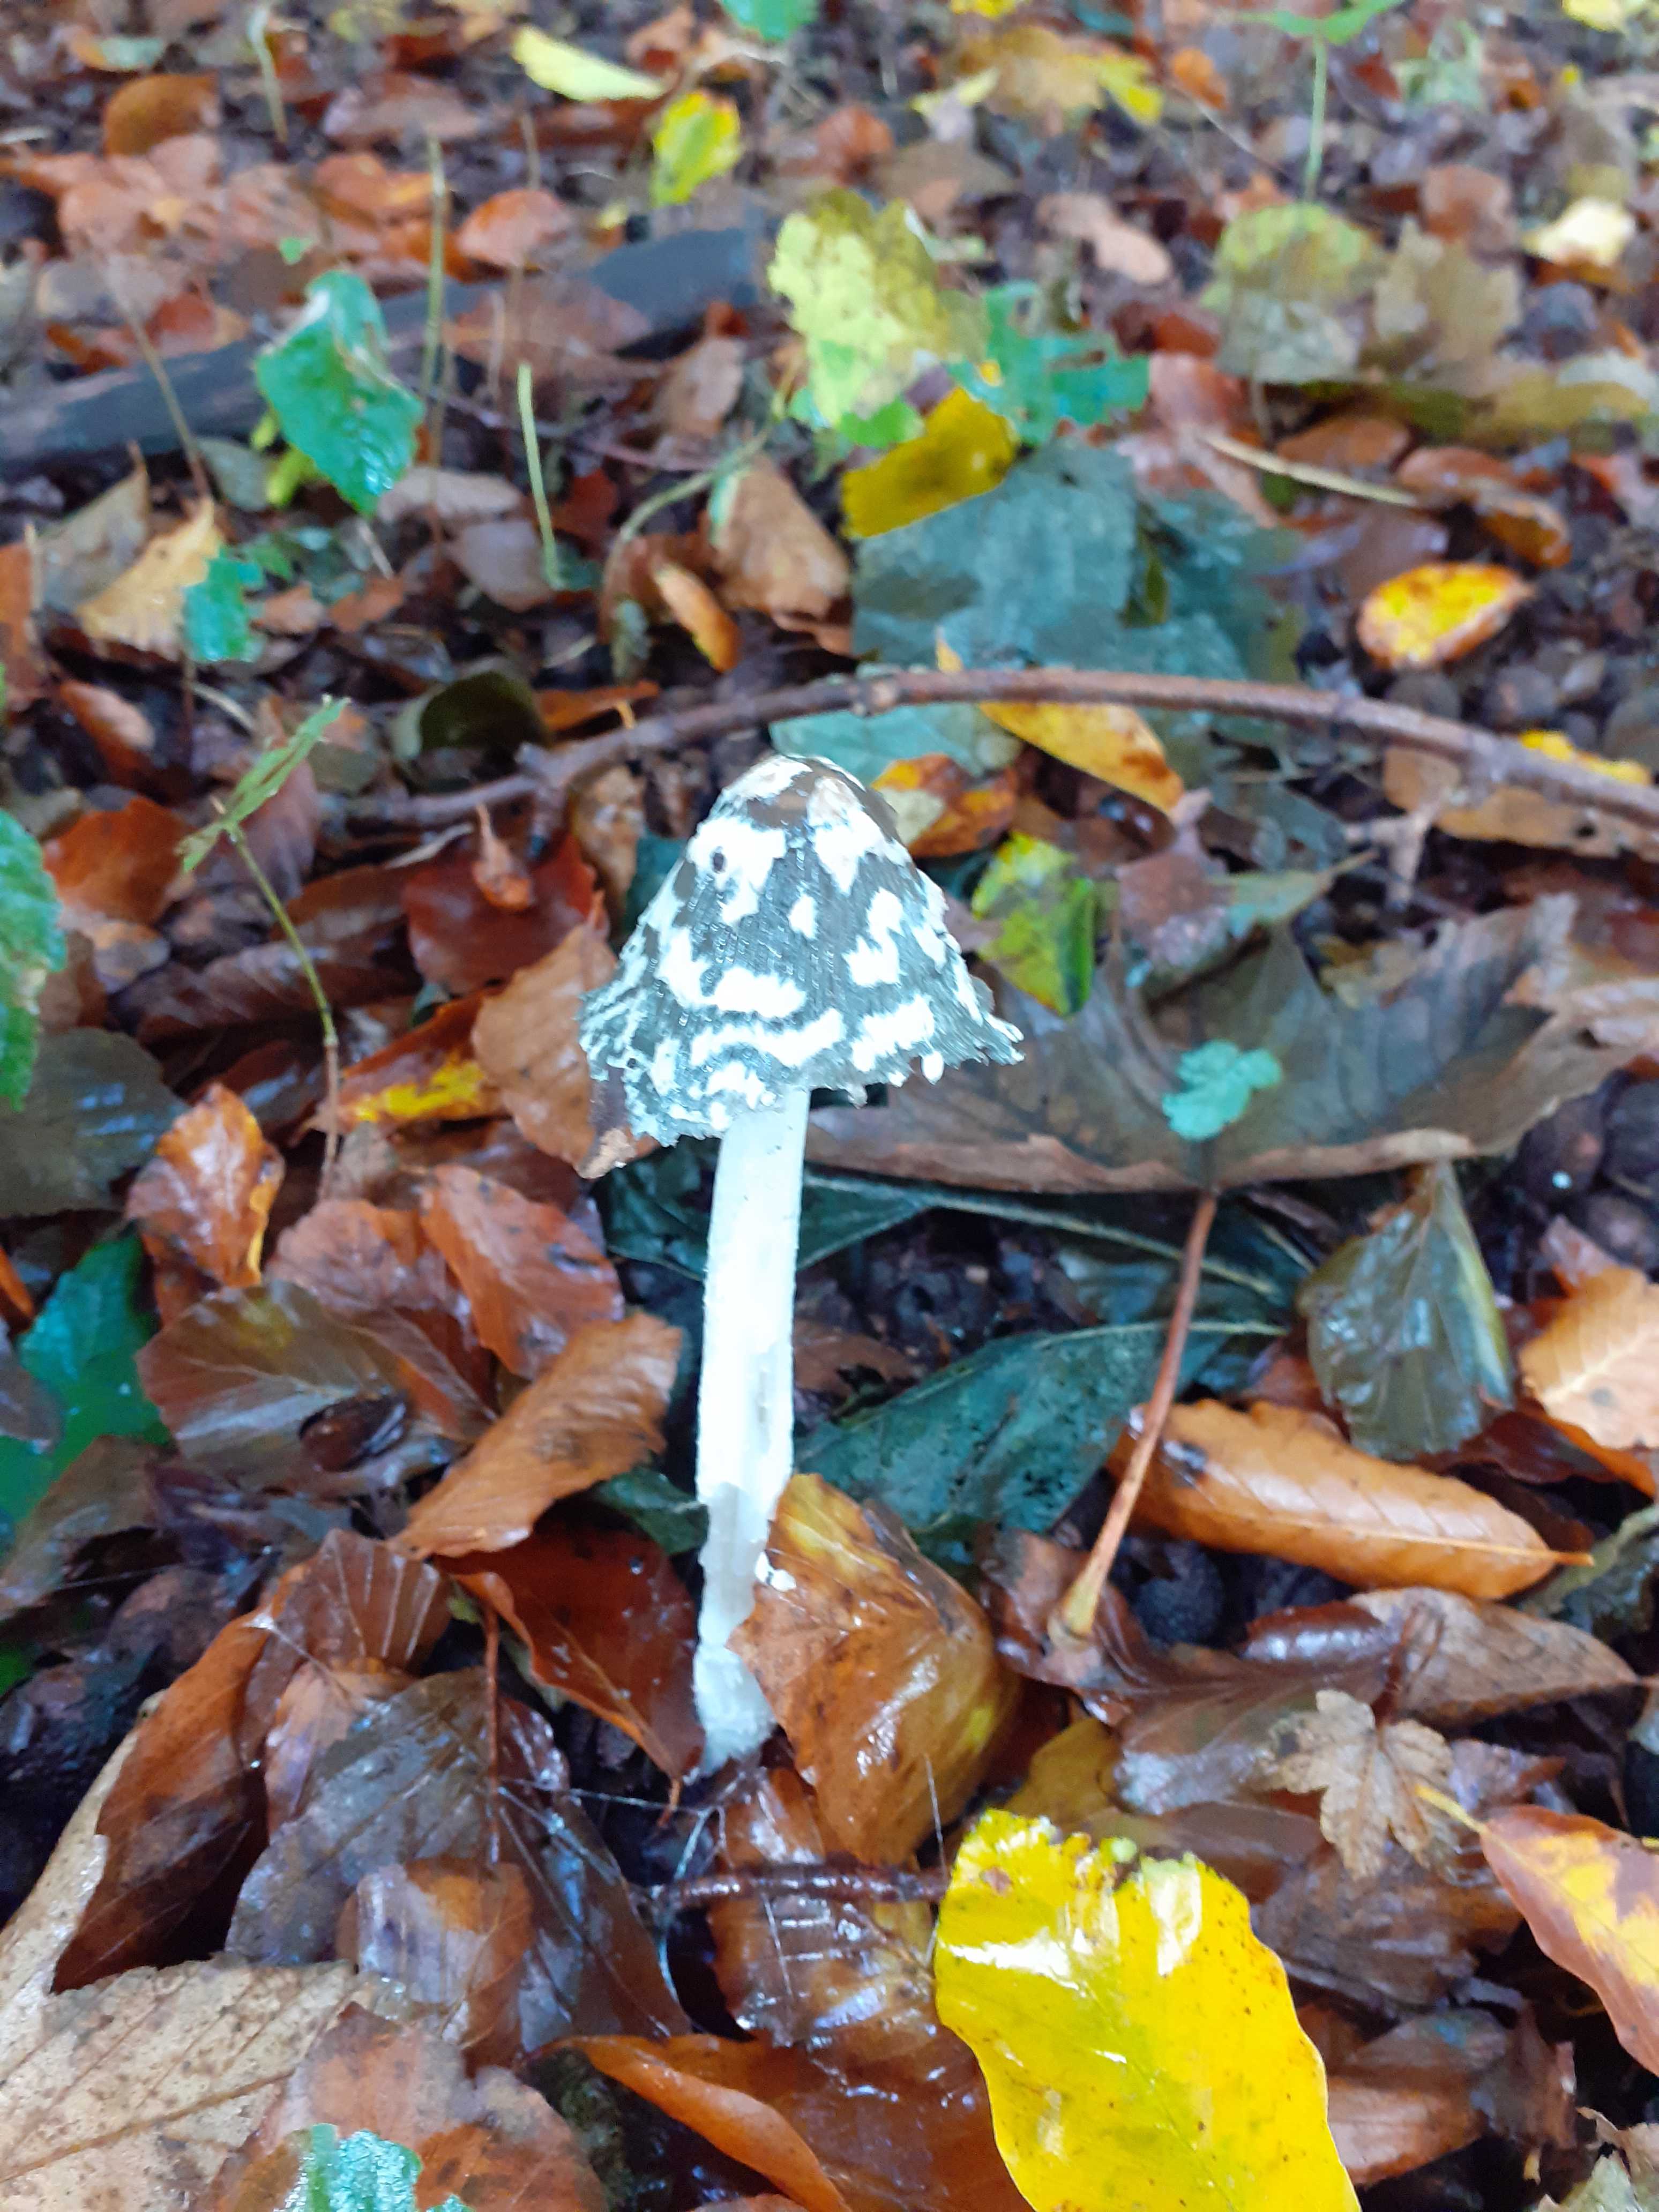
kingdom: Fungi
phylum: Basidiomycota
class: Agaricomycetes
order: Agaricales
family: Psathyrellaceae
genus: Coprinopsis
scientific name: Coprinopsis picacea
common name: skade-blækhat
